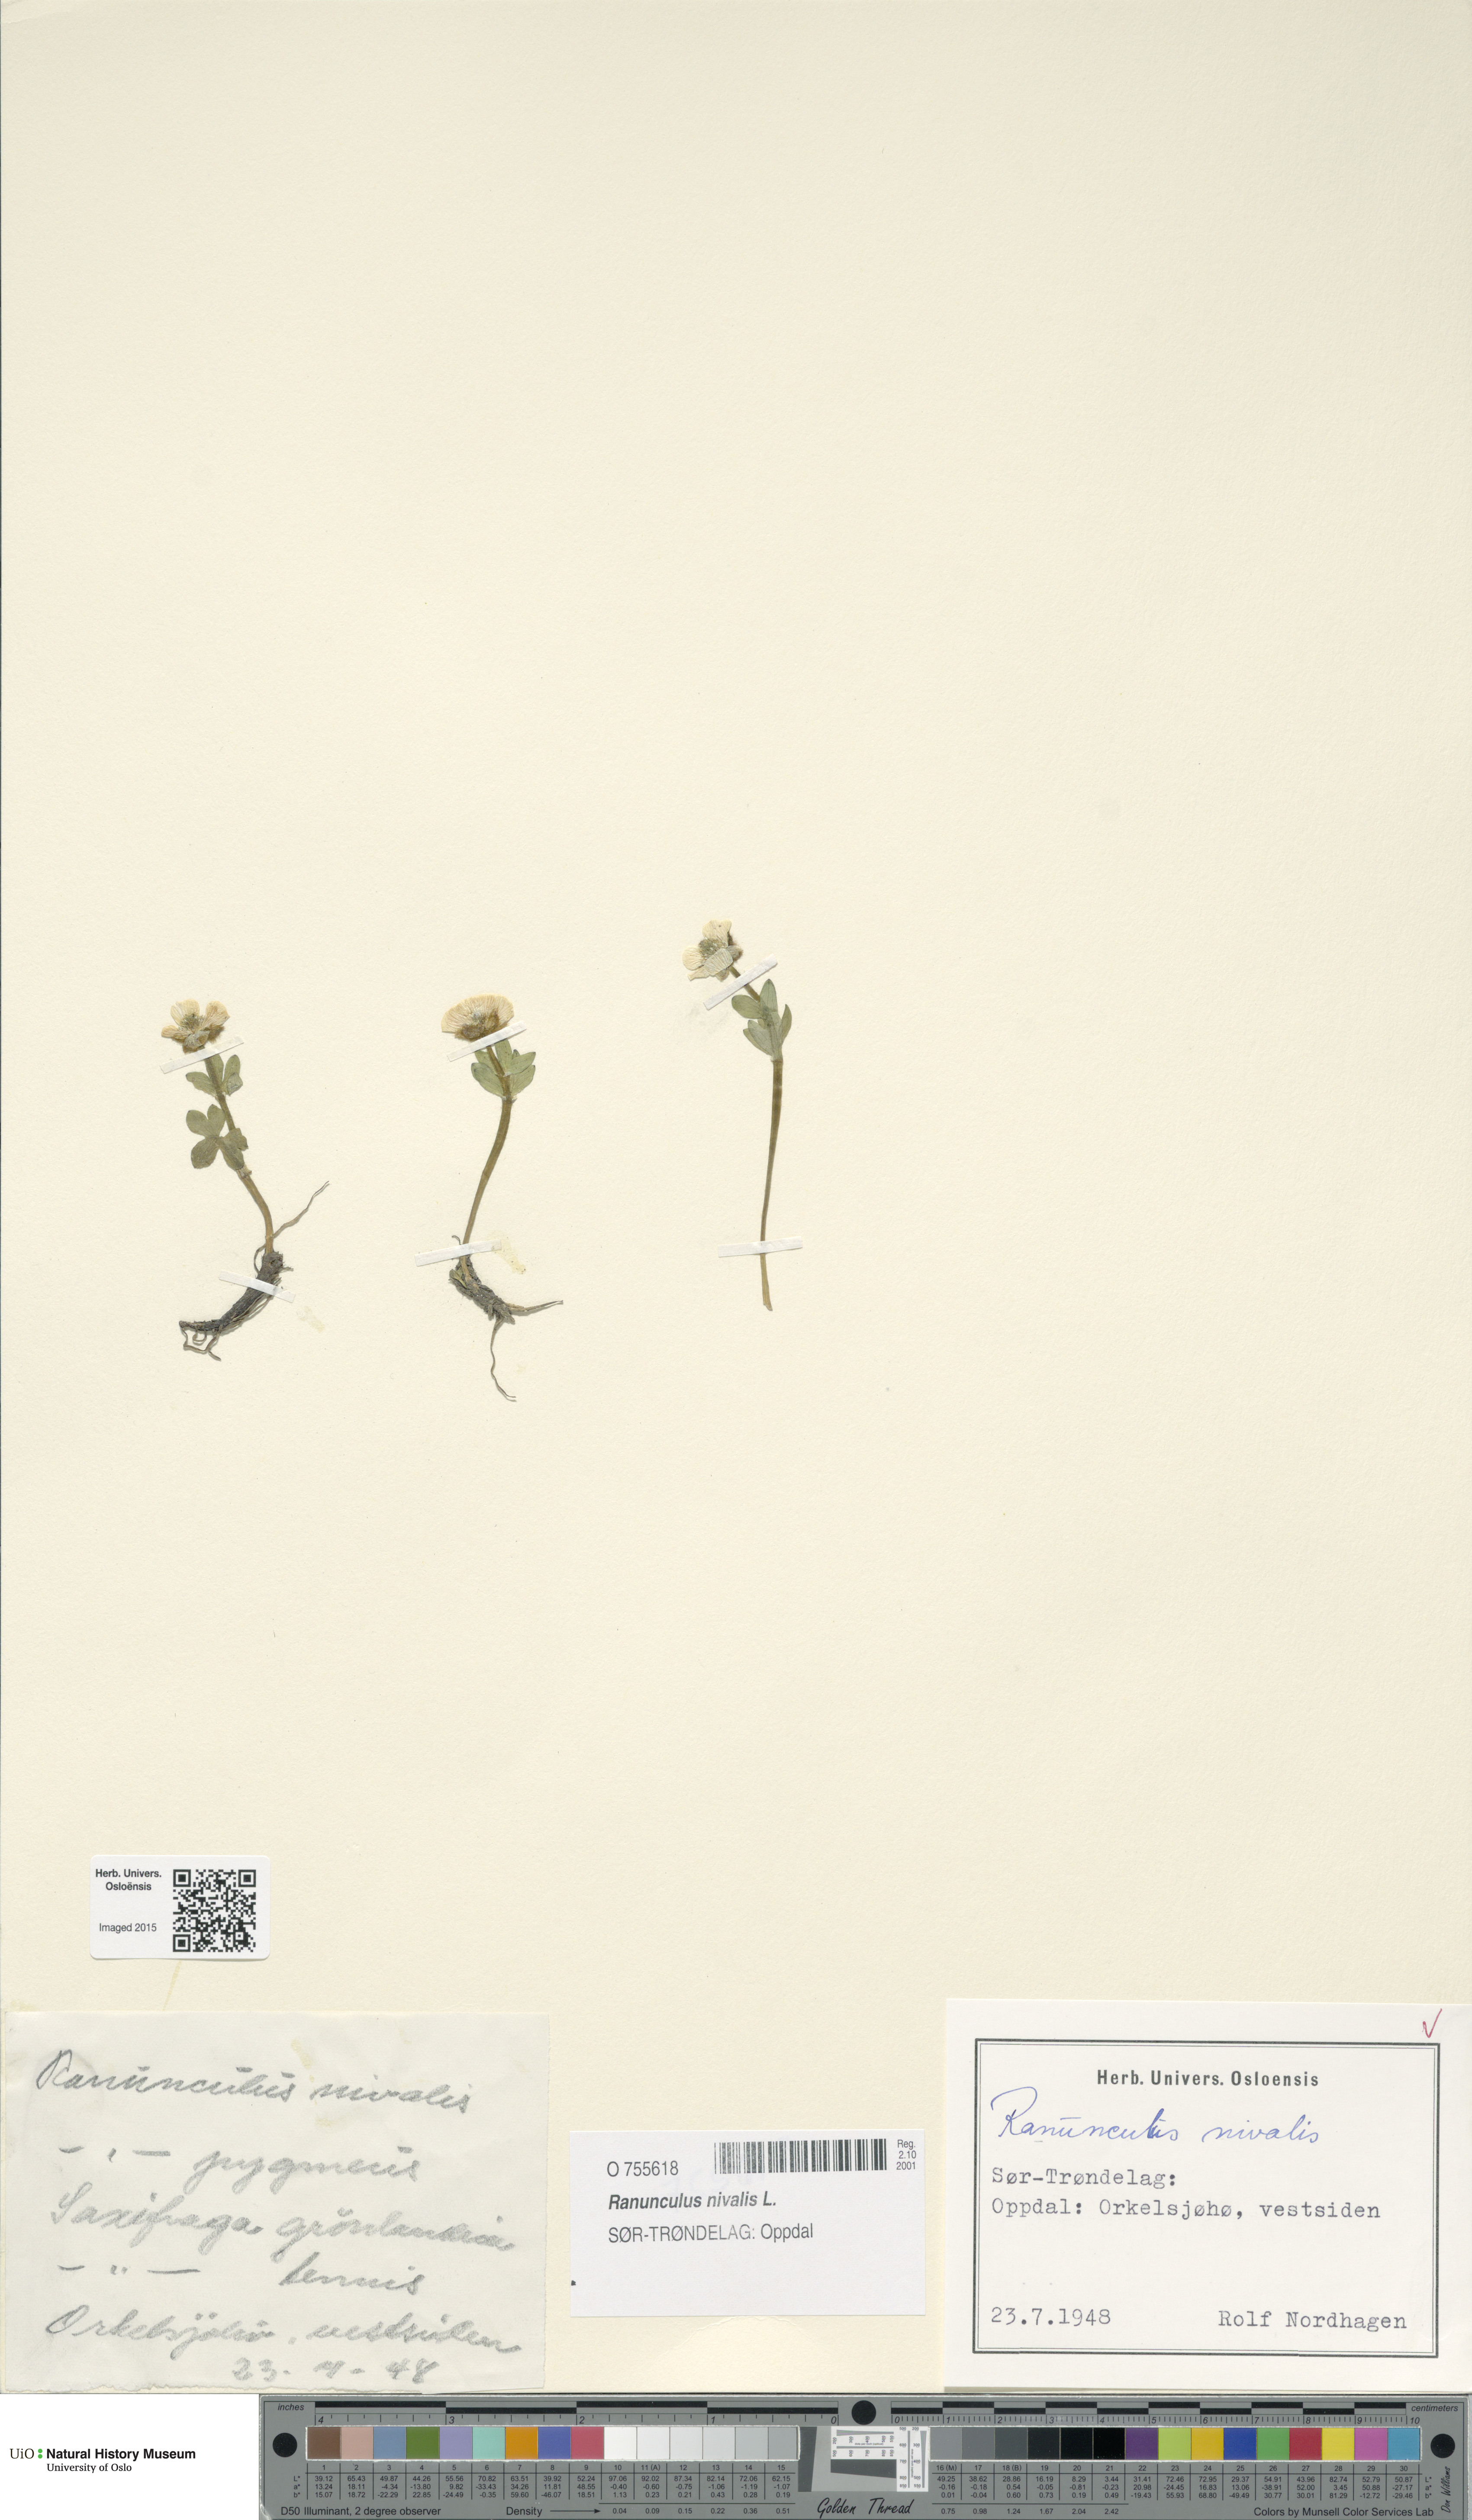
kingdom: Plantae
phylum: Tracheophyta
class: Magnoliopsida
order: Ranunculales
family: Ranunculaceae
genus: Ranunculus
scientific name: Ranunculus nivalis
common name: Snow buttercup
